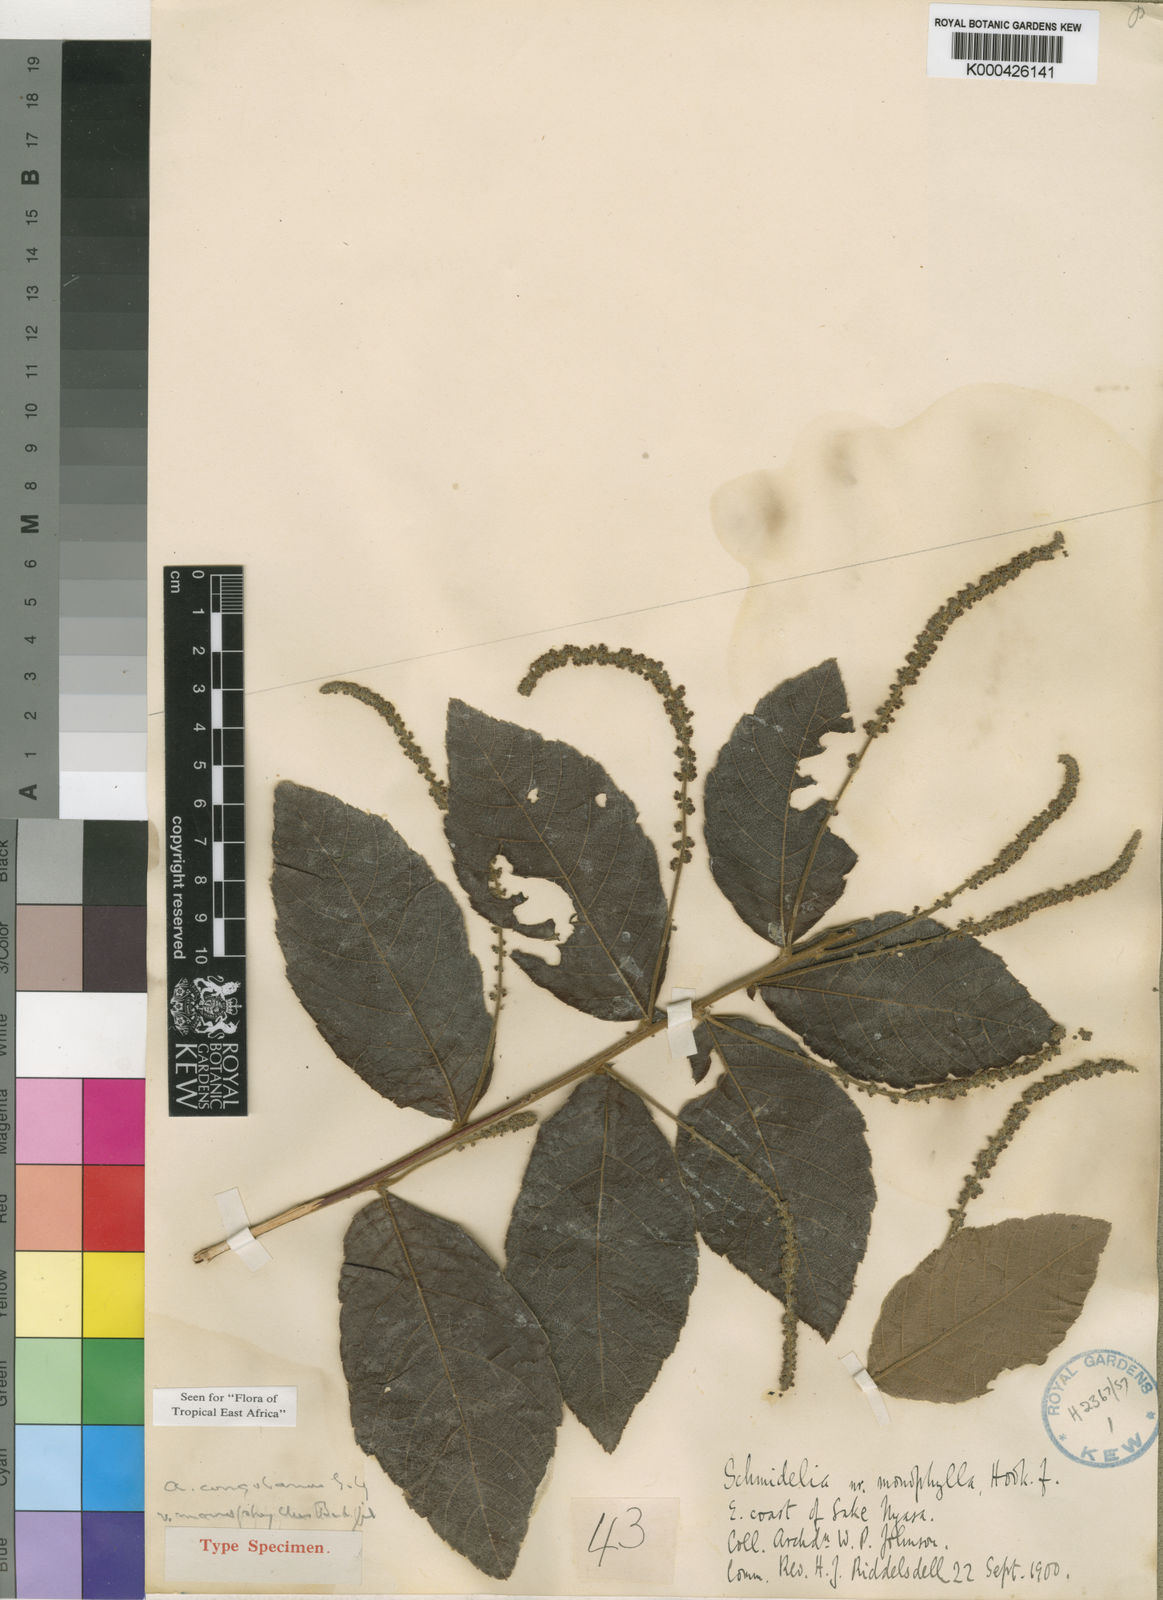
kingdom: Plantae
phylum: Tracheophyta
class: Magnoliopsida
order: Sapindales
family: Sapindaceae
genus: Allophylus
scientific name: Allophylus congolanus
